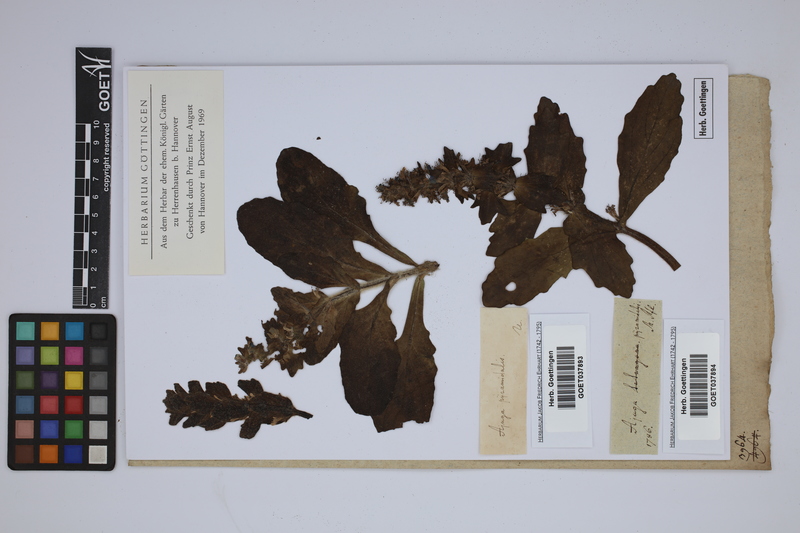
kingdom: Plantae
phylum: Tracheophyta
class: Magnoliopsida
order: Lamiales
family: Lamiaceae
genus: Ajuga
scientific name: Ajuga pyramidalis
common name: Pyramid bugle
